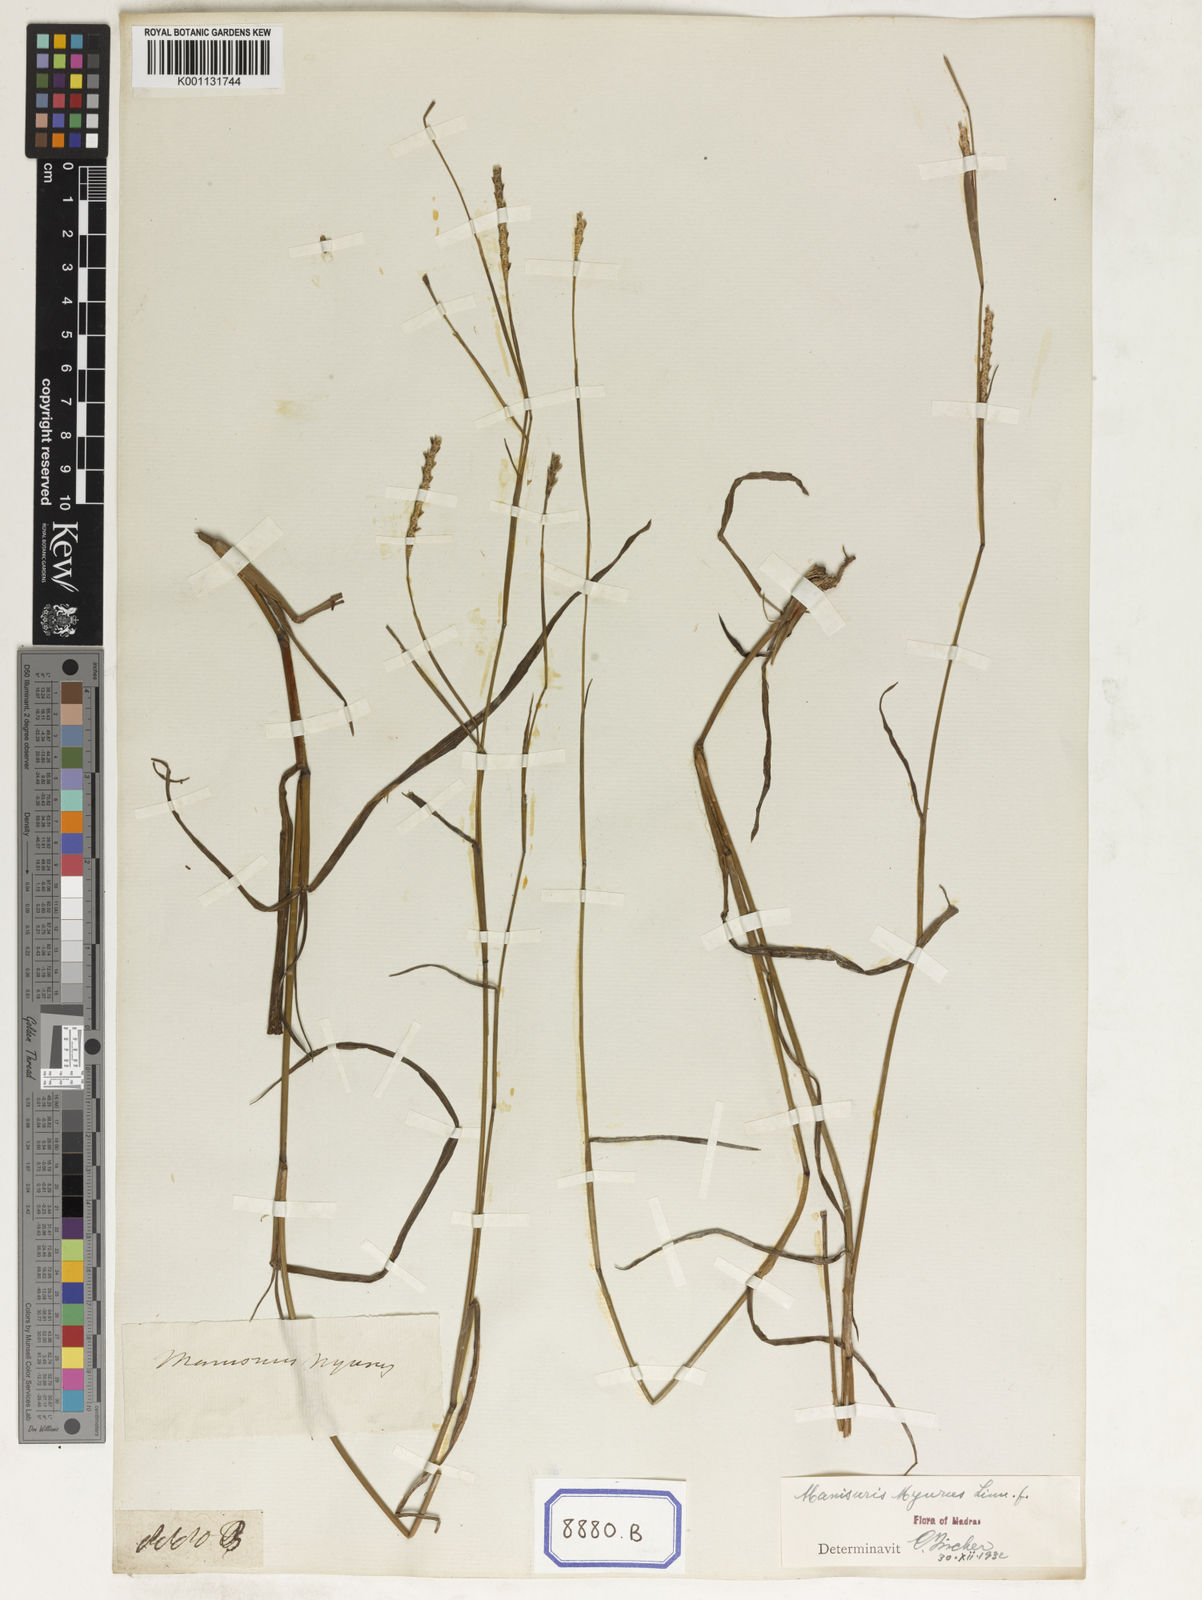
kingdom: Plantae
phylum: Tracheophyta
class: Liliopsida
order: Poales
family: Poaceae
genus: Manisuris
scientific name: Manisuris myurus
